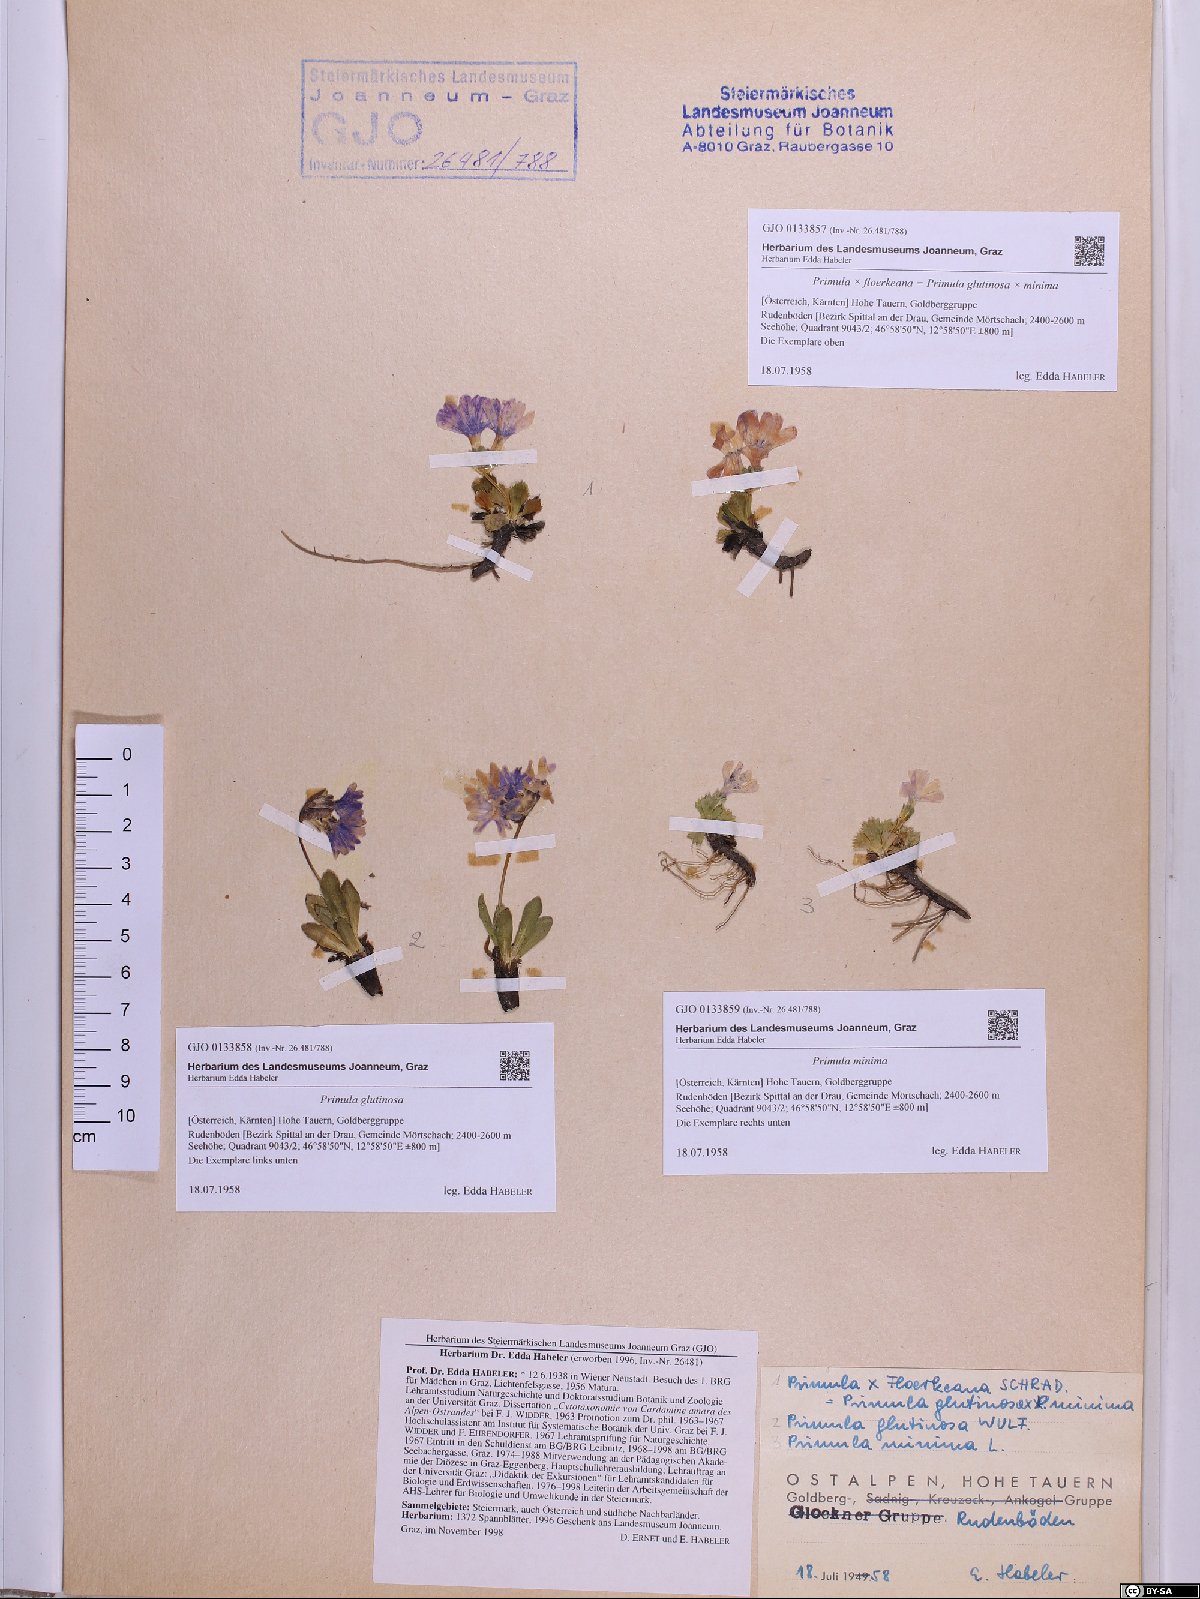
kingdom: Plantae
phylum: Tracheophyta
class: Magnoliopsida
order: Ericales
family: Primulaceae
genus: Primula
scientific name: Primula glutinosa
